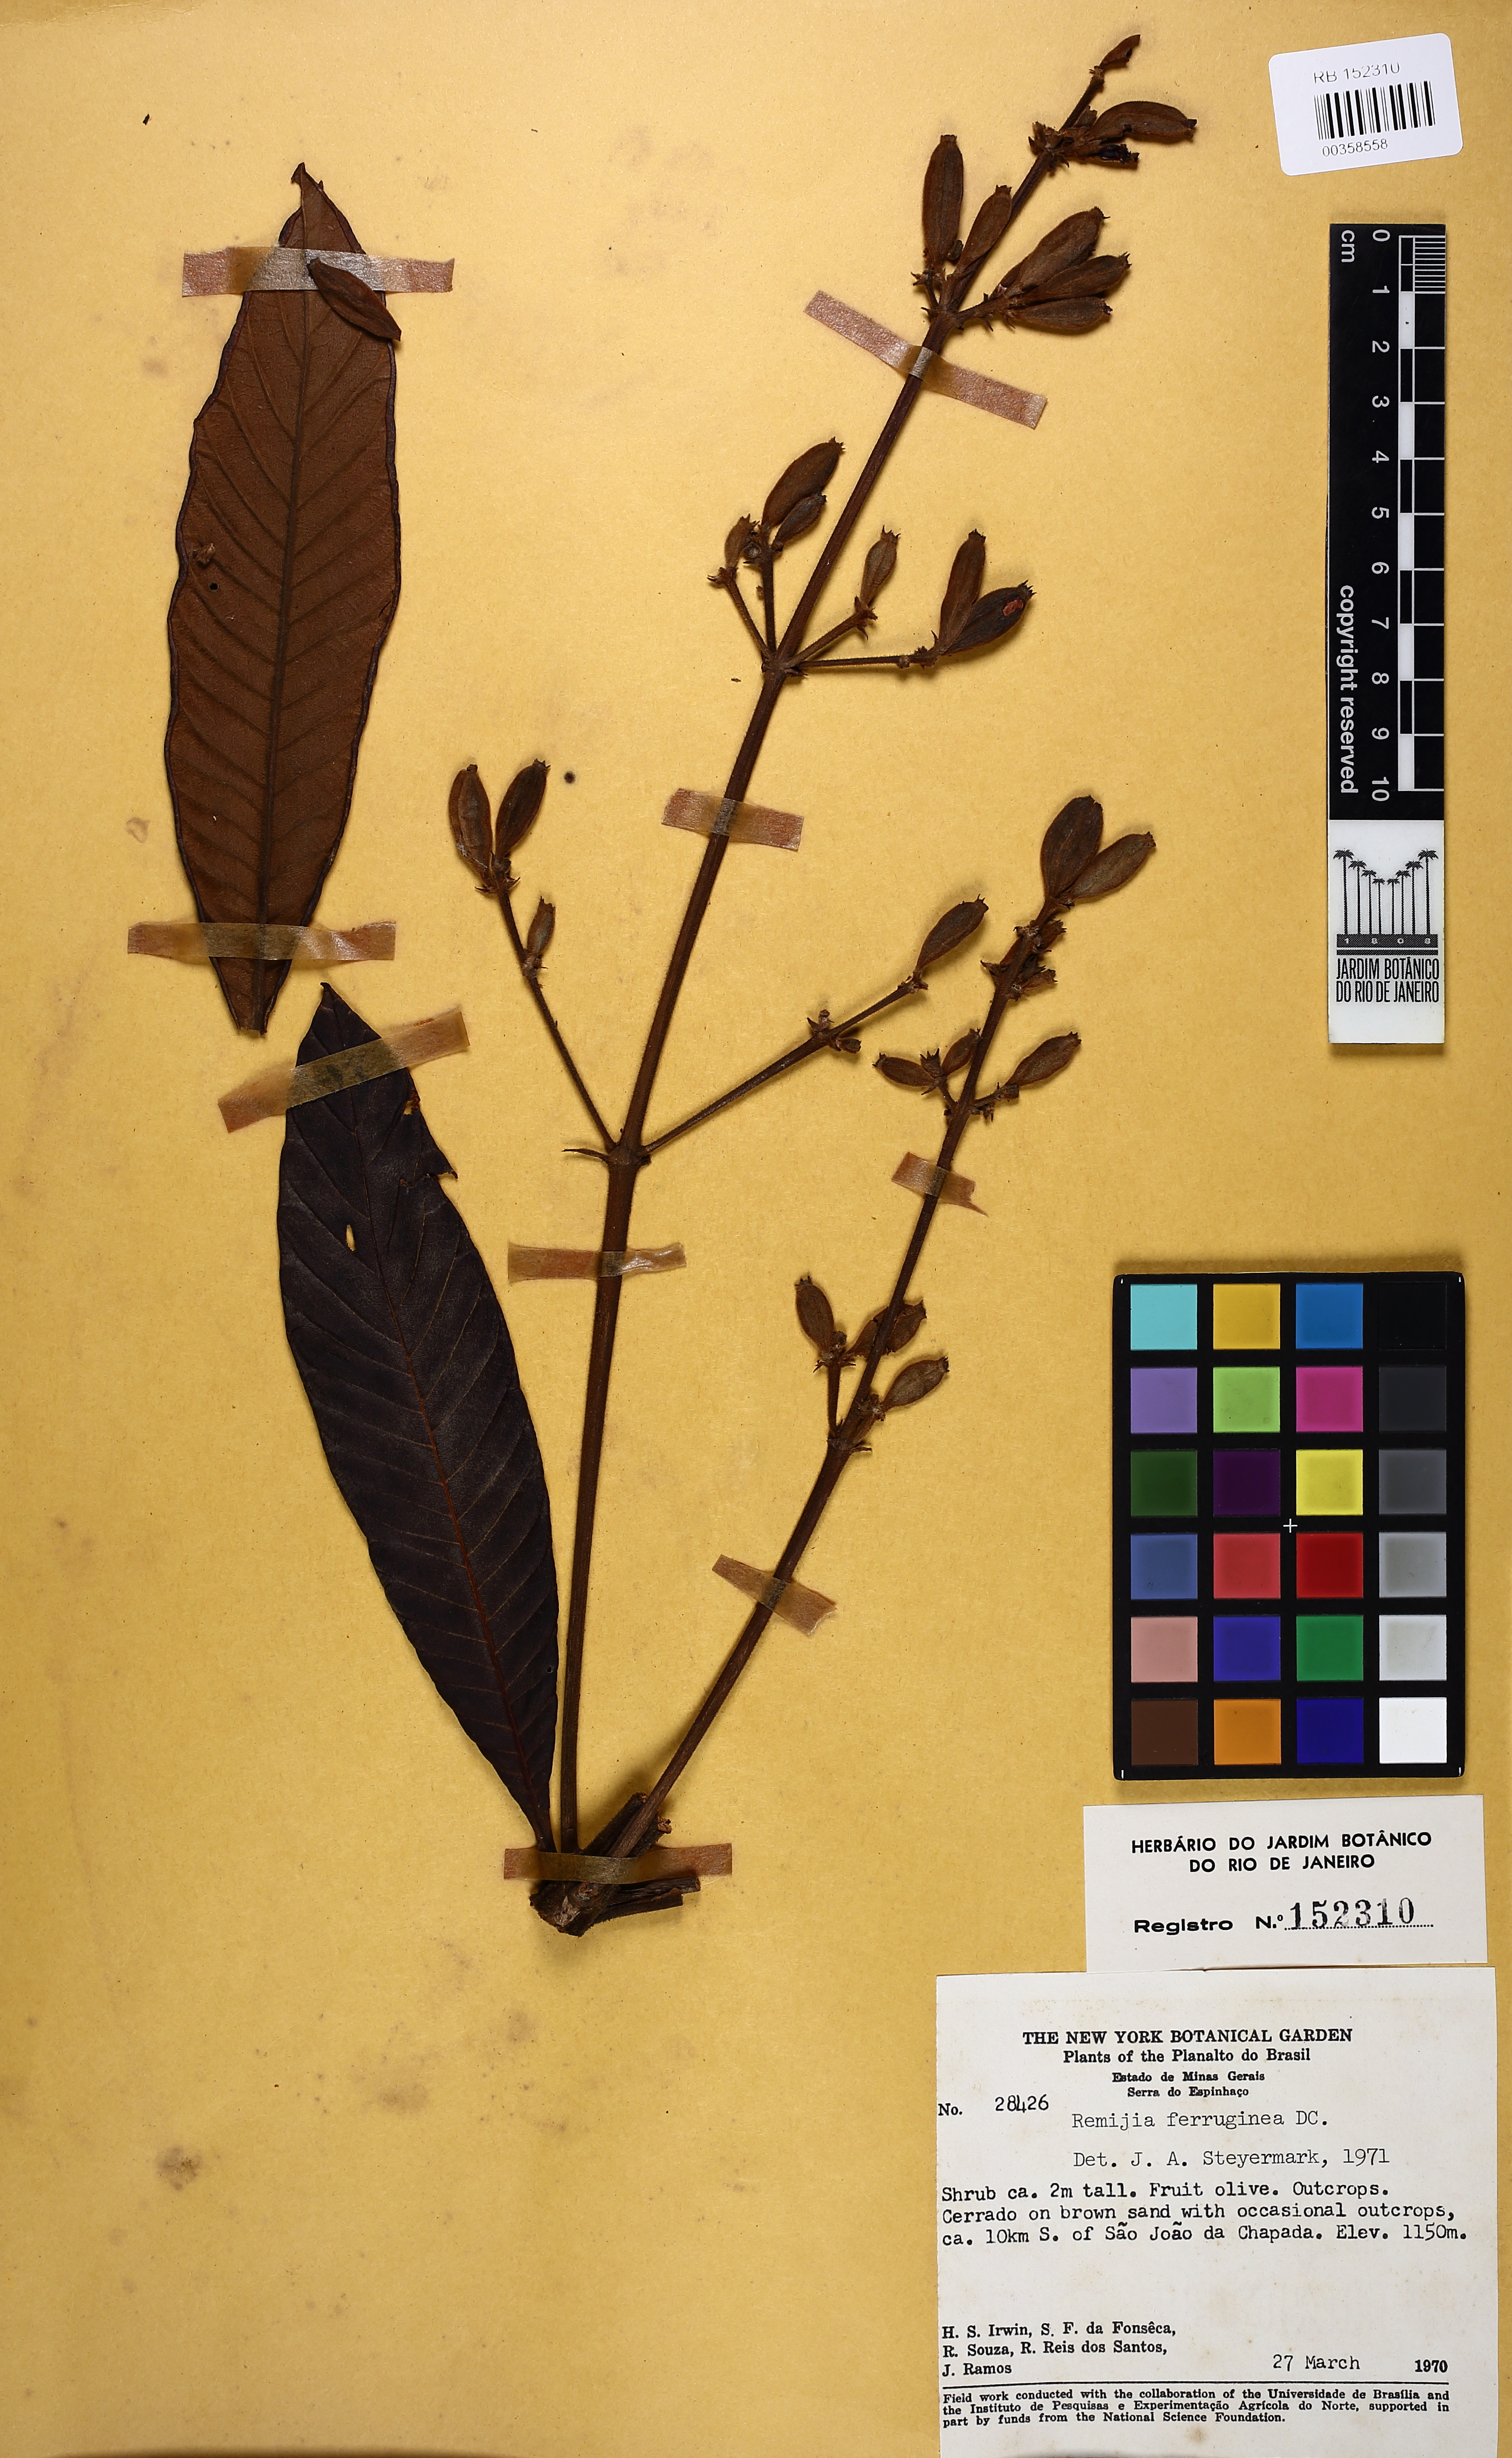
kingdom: Plantae
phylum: Tracheophyta
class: Magnoliopsida
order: Gentianales
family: Rubiaceae
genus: Remijia
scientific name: Remijia ferruginea
